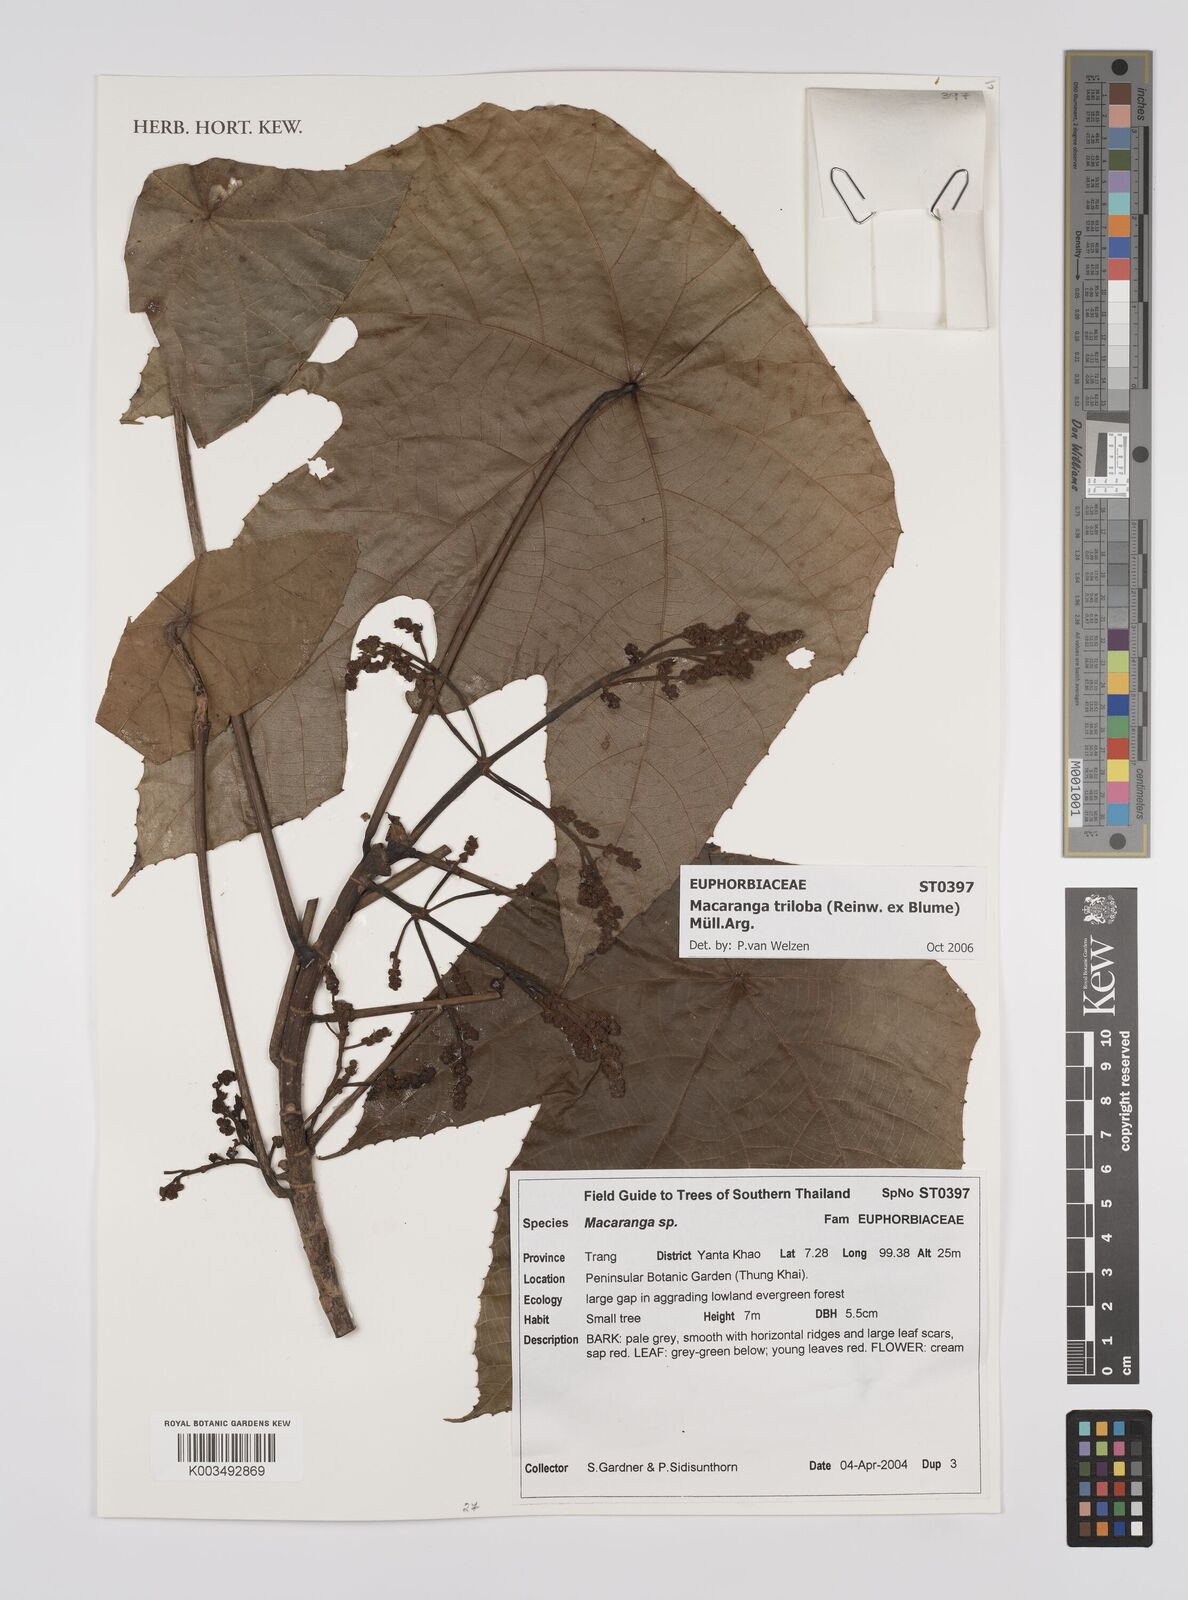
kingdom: Plantae
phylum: Tracheophyta
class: Magnoliopsida
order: Malpighiales
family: Euphorbiaceae
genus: Macaranga
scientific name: Macaranga triloba
